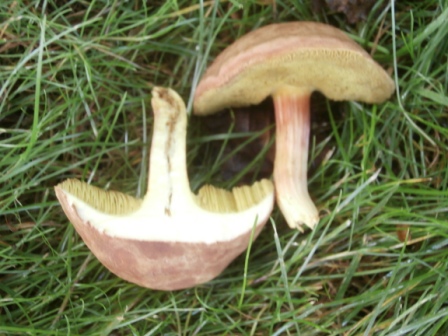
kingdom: Fungi
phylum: Basidiomycota
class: Agaricomycetes
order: Boletales
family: Boletaceae
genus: Xerocomus
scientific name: Xerocomus ferrugineus
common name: vaskeskinds-rørhat
